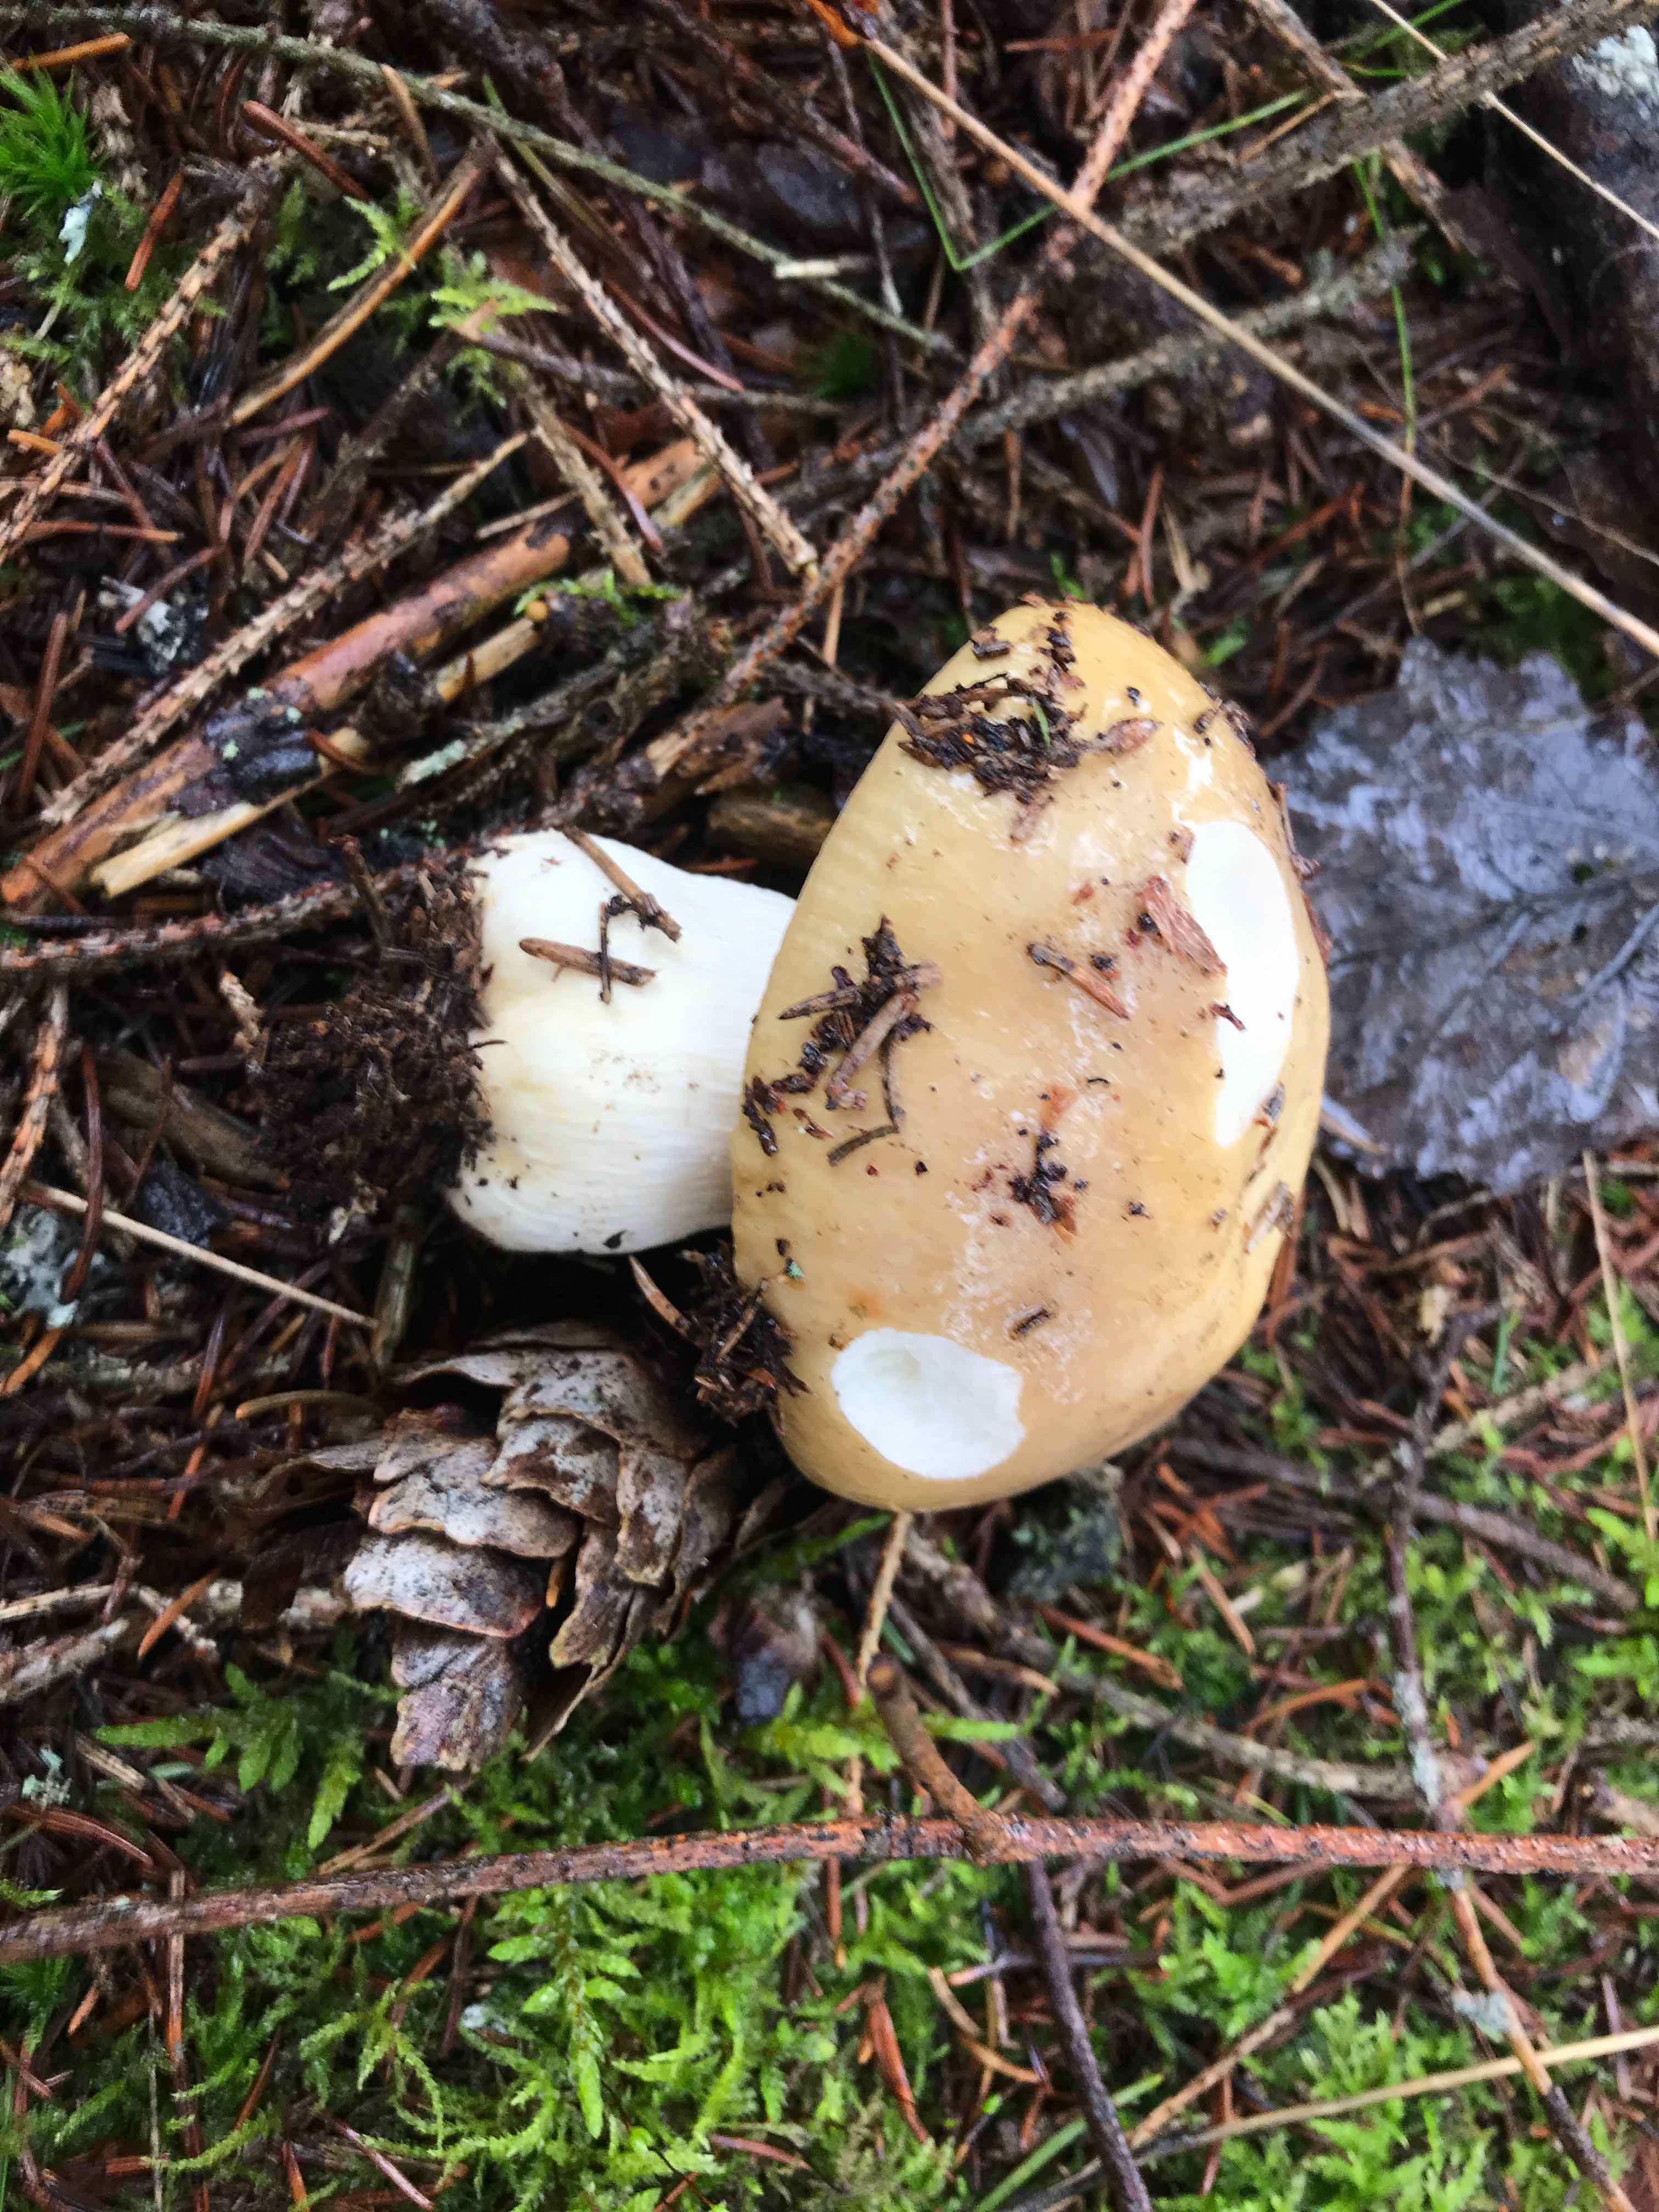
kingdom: Fungi
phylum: Basidiomycota
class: Agaricomycetes
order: Russulales
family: Russulaceae
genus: Russula
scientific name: Russula ochroleuca
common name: okkergul skørhat
